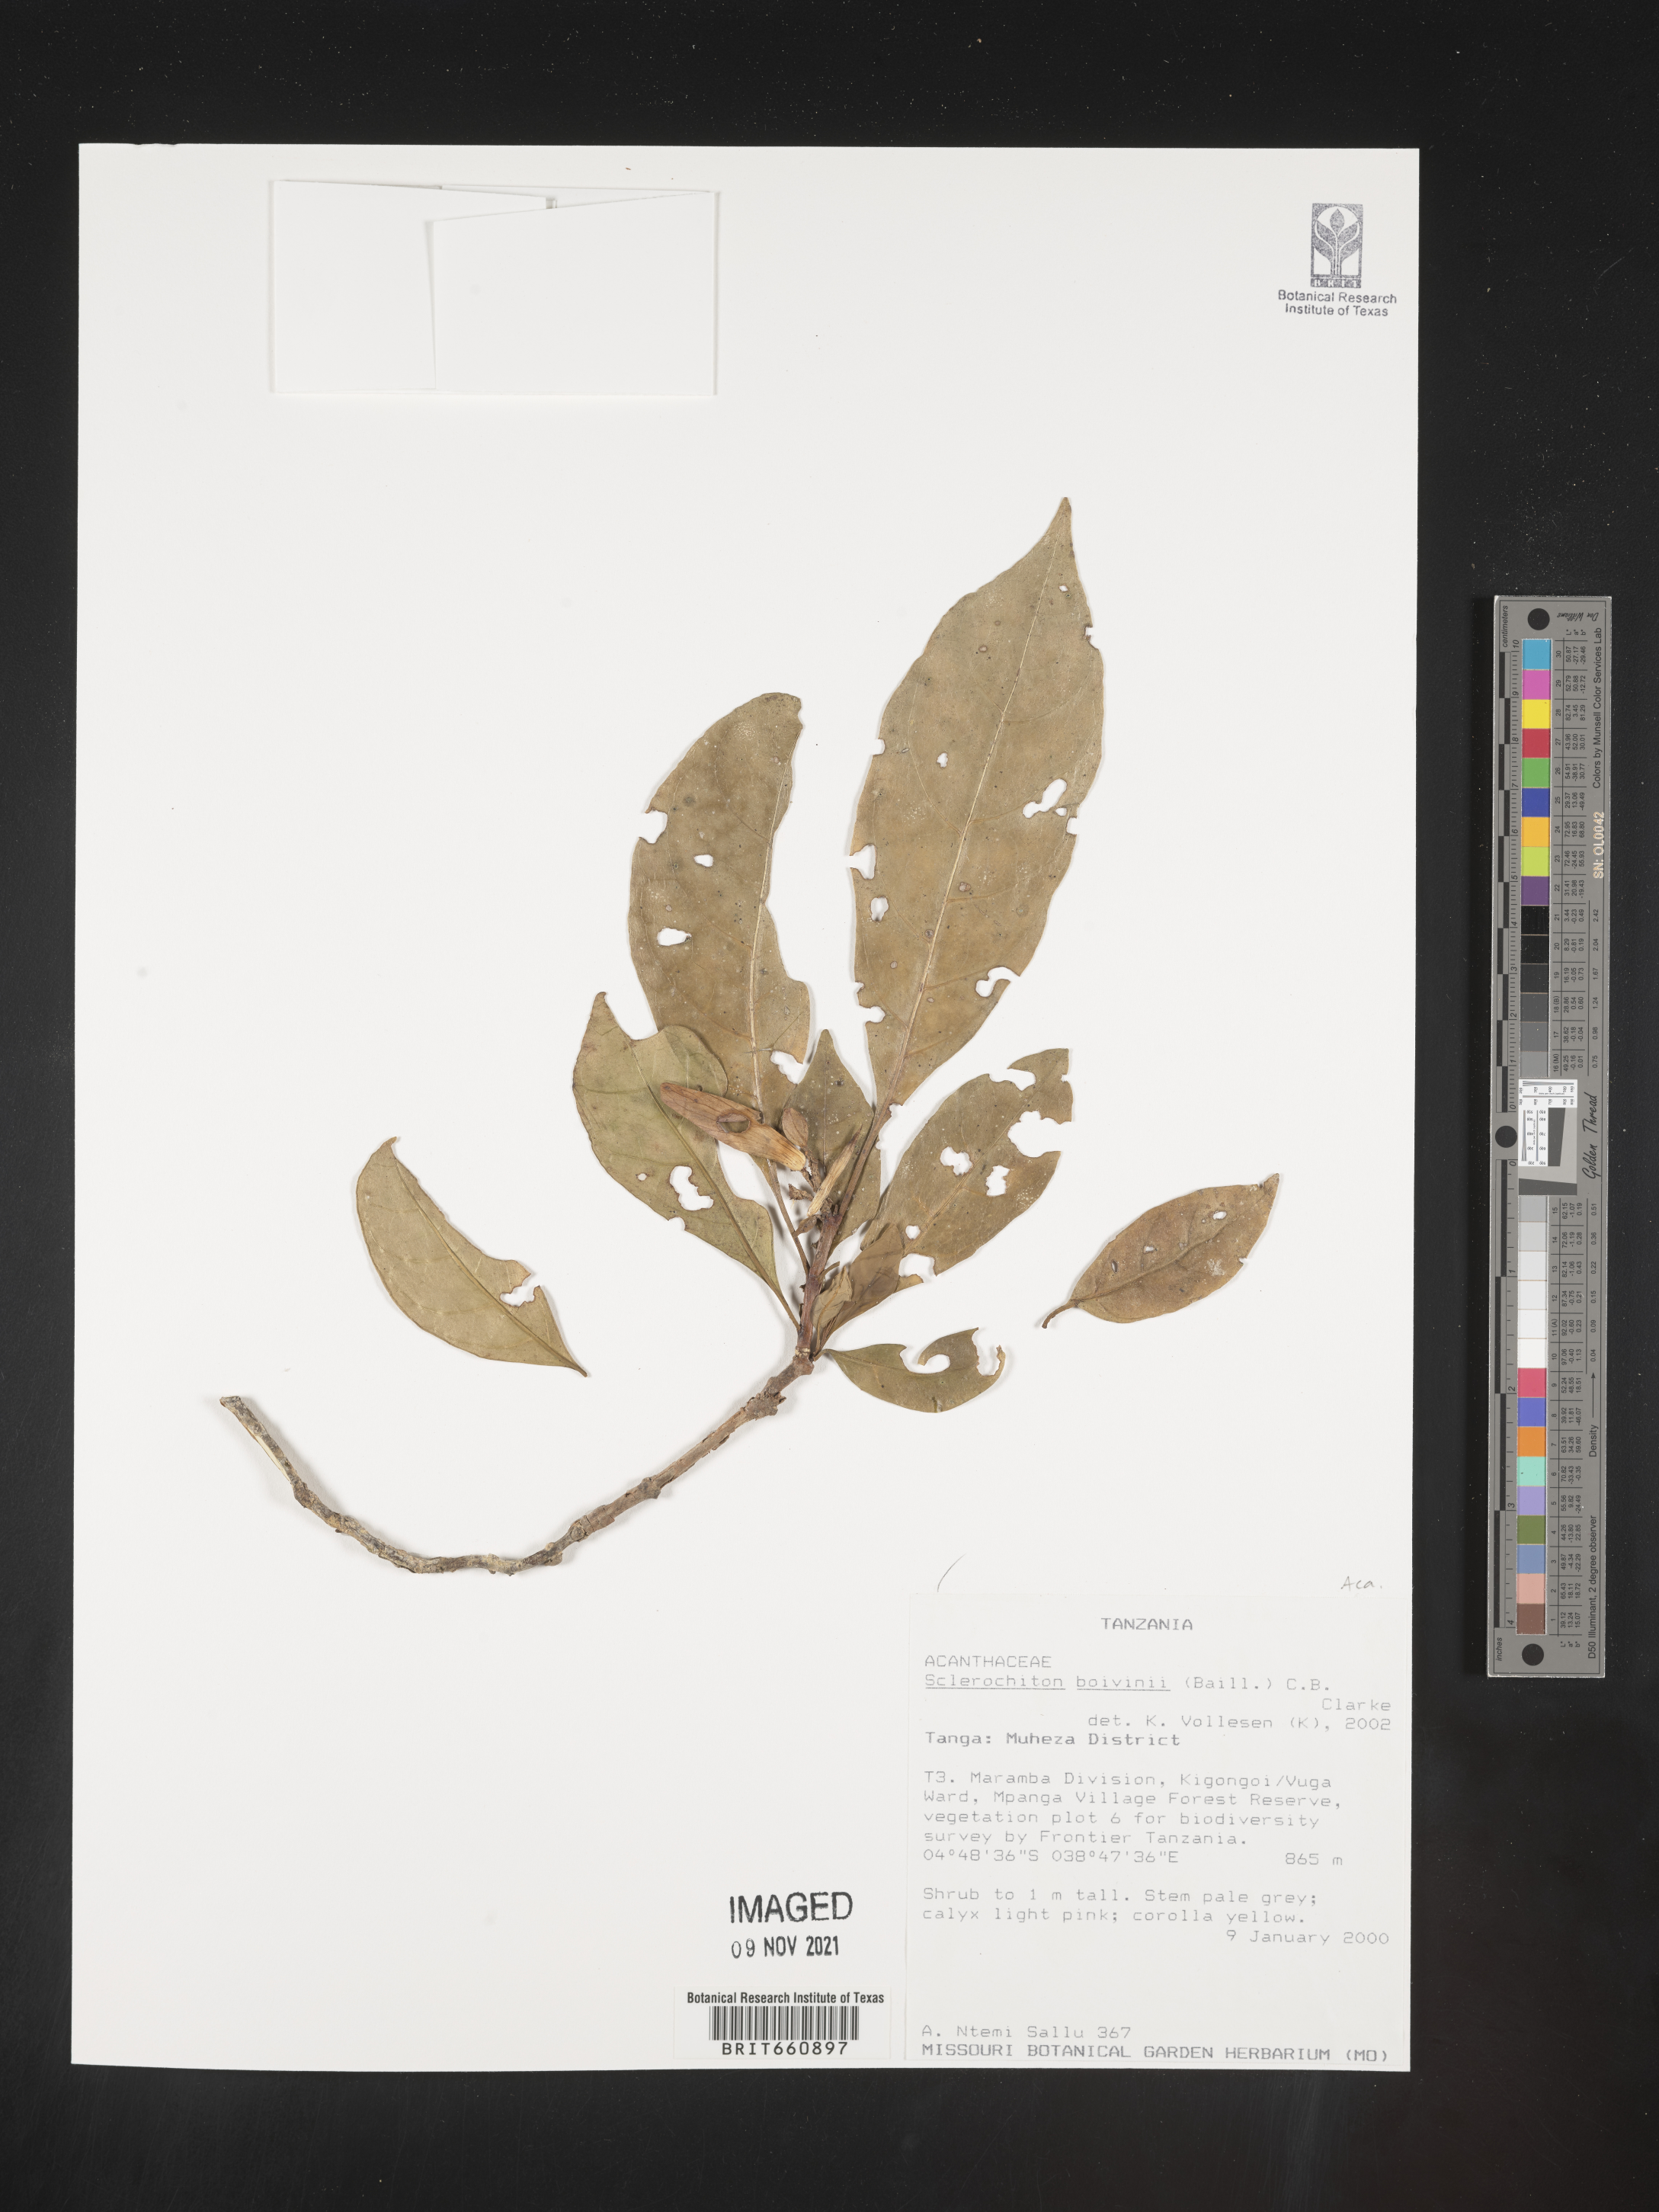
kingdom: Plantae
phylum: Tracheophyta
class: Magnoliopsida
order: Lamiales
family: Acanthaceae
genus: Sclerochiton
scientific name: Sclerochiton
